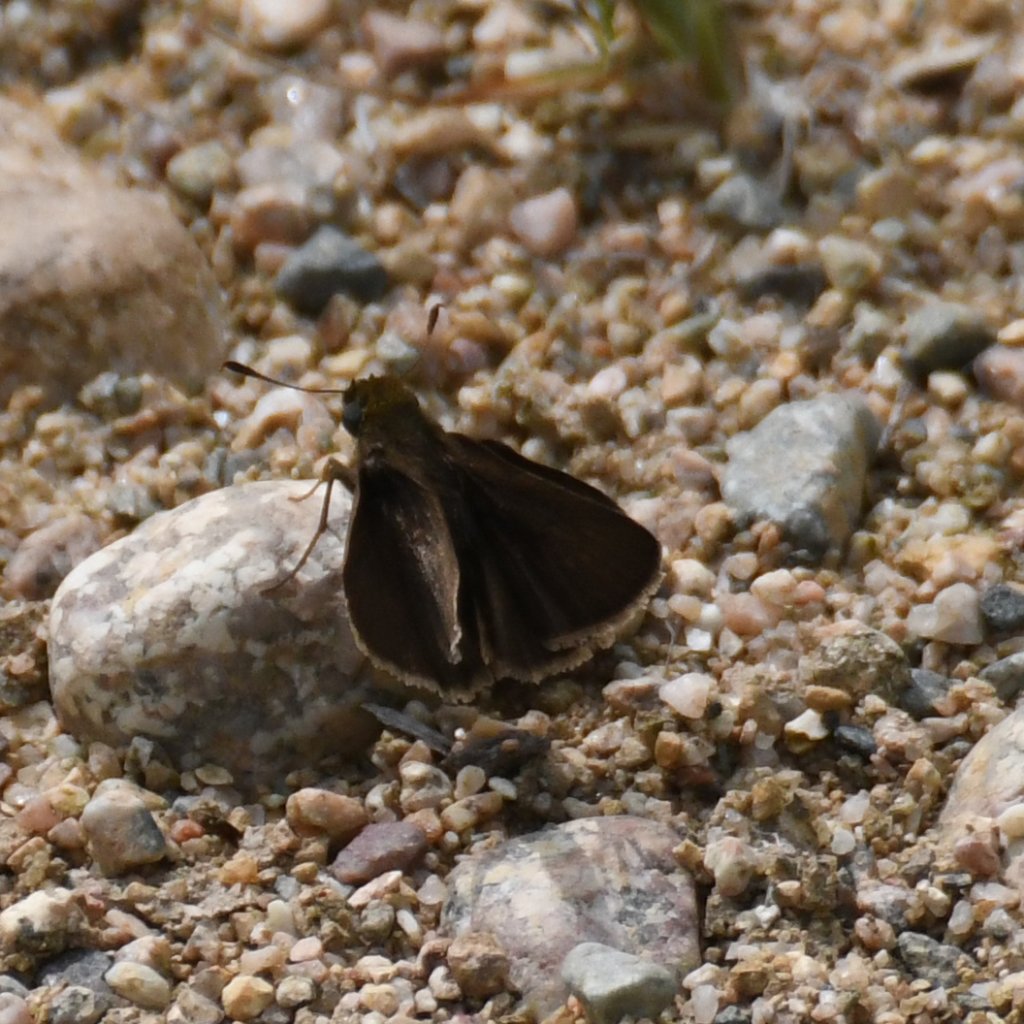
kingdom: Animalia
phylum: Arthropoda
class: Insecta
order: Lepidoptera
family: Hesperiidae
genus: Euphyes
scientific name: Euphyes vestris
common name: Dun Skipper
